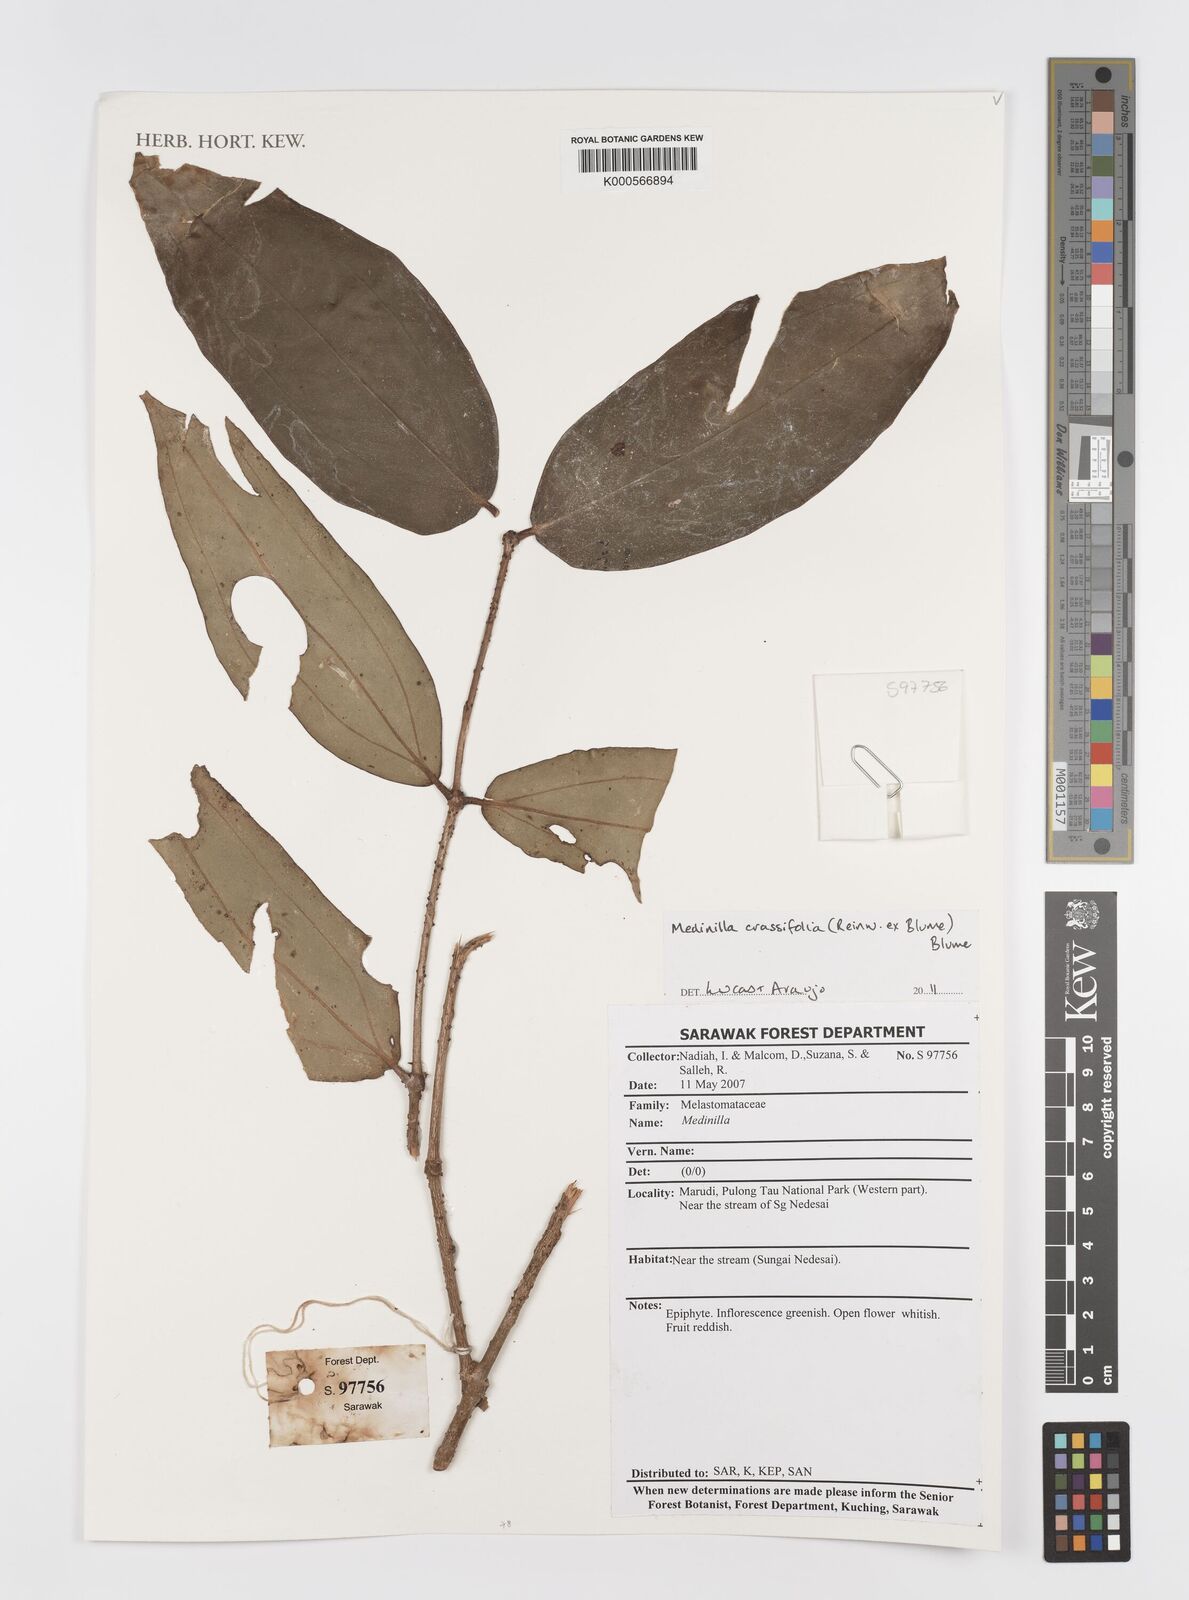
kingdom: Plantae
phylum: Tracheophyta
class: Magnoliopsida
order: Myrtales
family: Melastomataceae
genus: Medinilla
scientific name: Medinilla crassifolia
